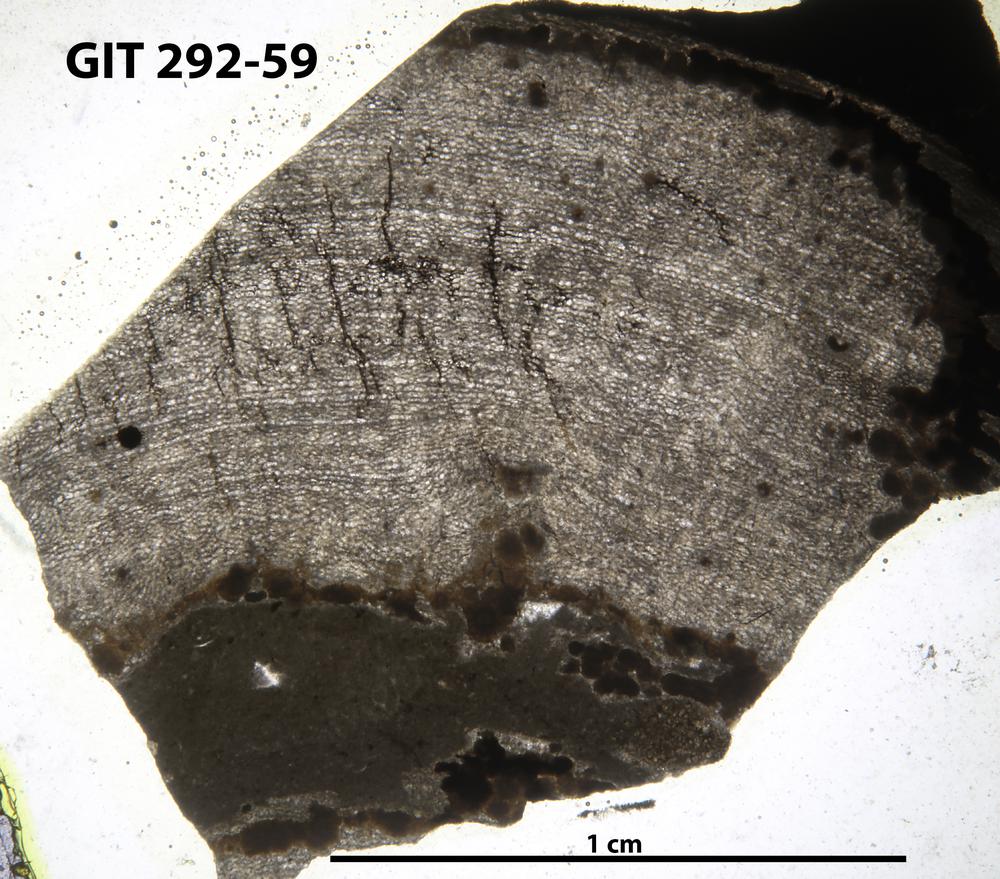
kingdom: Animalia
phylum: Porifera
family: Ecclimadictyidae
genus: Ecclimadictyon
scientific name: Ecclimadictyon Clathrodictyon microvesiculosum
